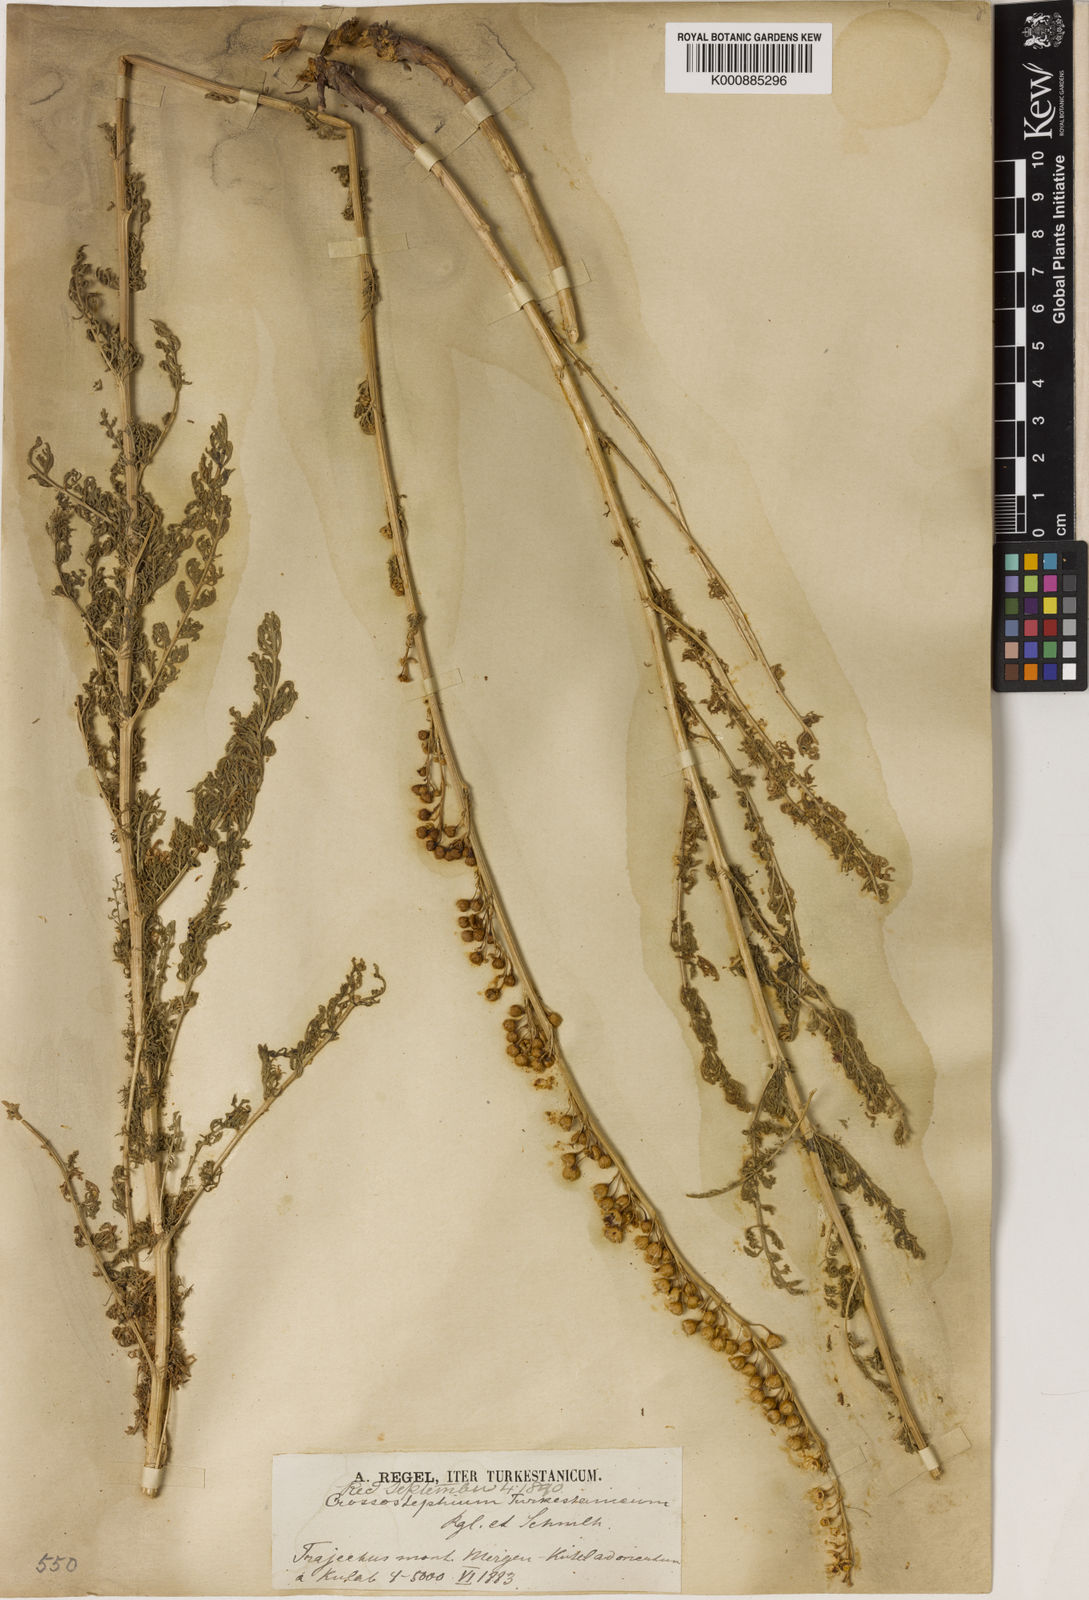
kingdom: Plantae
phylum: Tracheophyta
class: Magnoliopsida
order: Asterales
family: Asteraceae
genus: Lepidolopsis
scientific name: Lepidolopsis turkestanica
